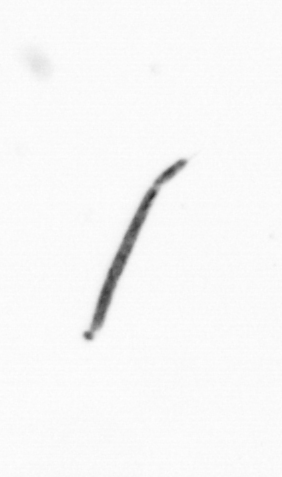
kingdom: Bacteria
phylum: Cyanobacteria
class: Cyanobacteriia
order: Cyanobacteriales
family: Microcoleaceae
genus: Trichodesmium
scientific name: Trichodesmium
